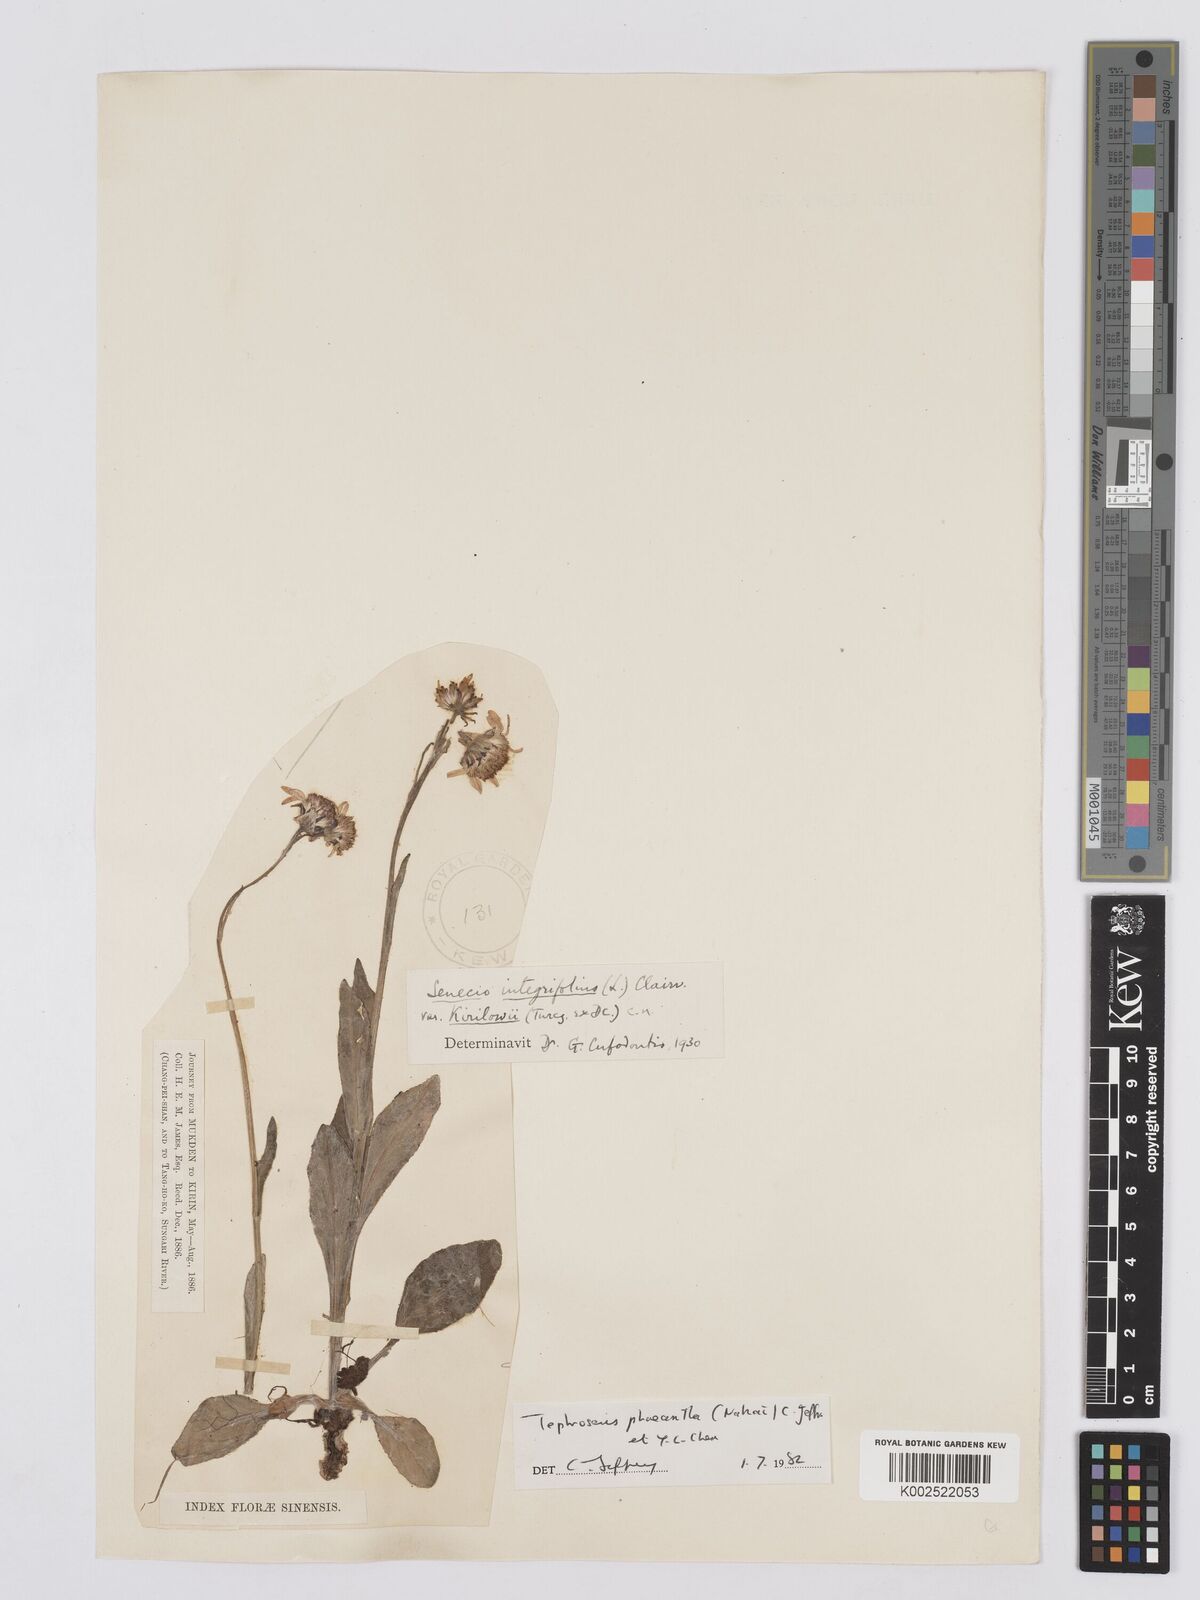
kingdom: Plantae
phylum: Tracheophyta
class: Magnoliopsida
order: Asterales
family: Asteraceae
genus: Tephroseris
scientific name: Tephroseris phaeantha
